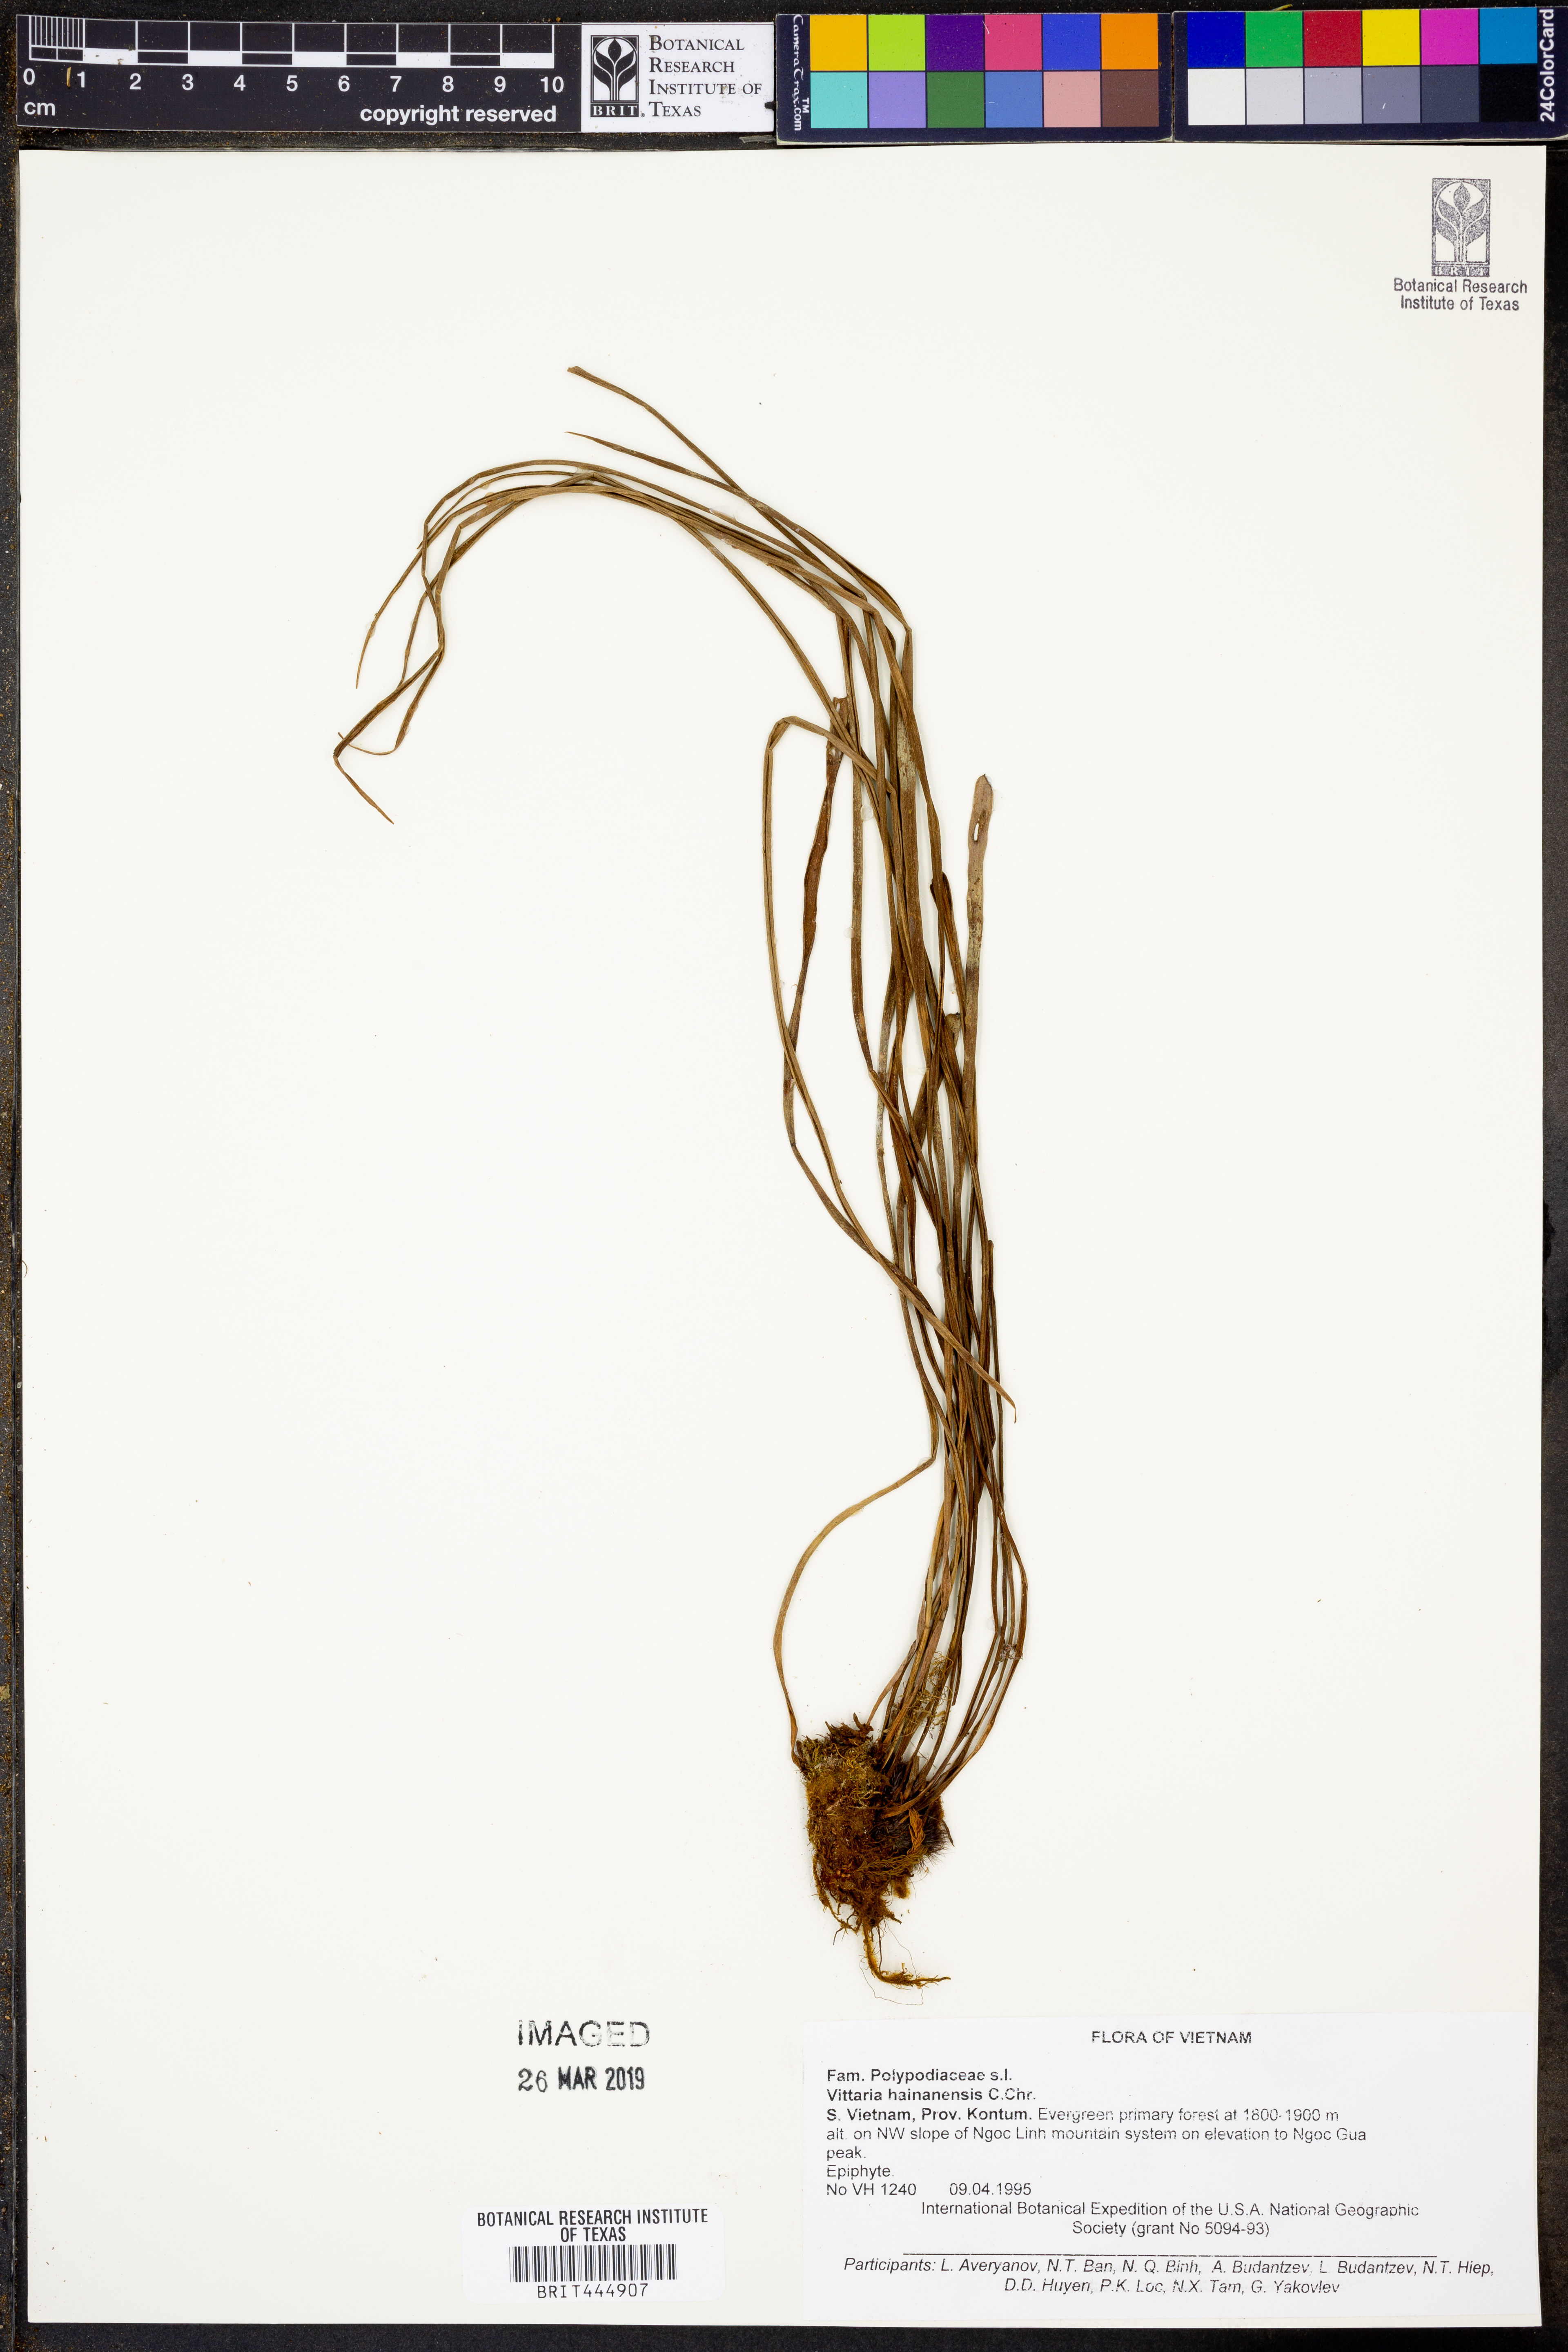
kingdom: Plantae
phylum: Tracheophyta
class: Polypodiopsida
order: Polypodiales
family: Pteridaceae
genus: Vittaria
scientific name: Vittaria hainanensis
